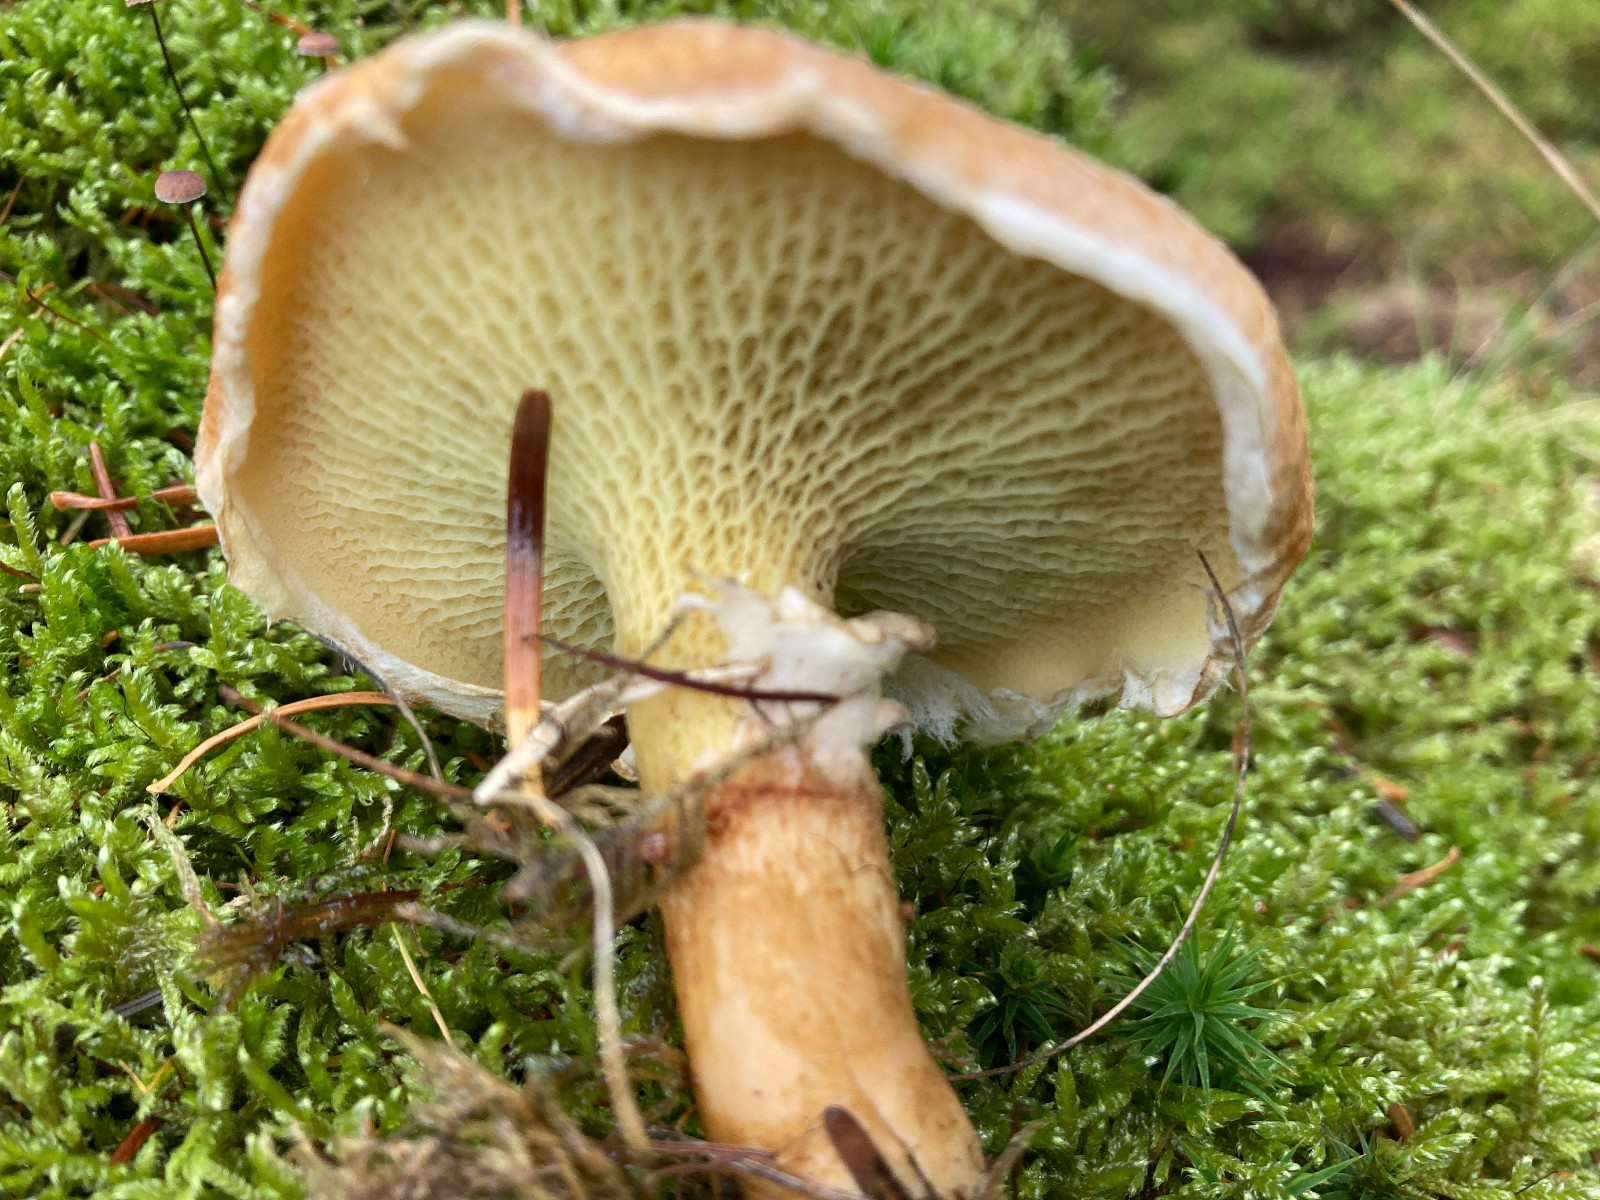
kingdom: Fungi
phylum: Basidiomycota
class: Agaricomycetes
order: Boletales
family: Suillaceae
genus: Suillus
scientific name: Suillus cavipes
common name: hulstokket slimrørhat
